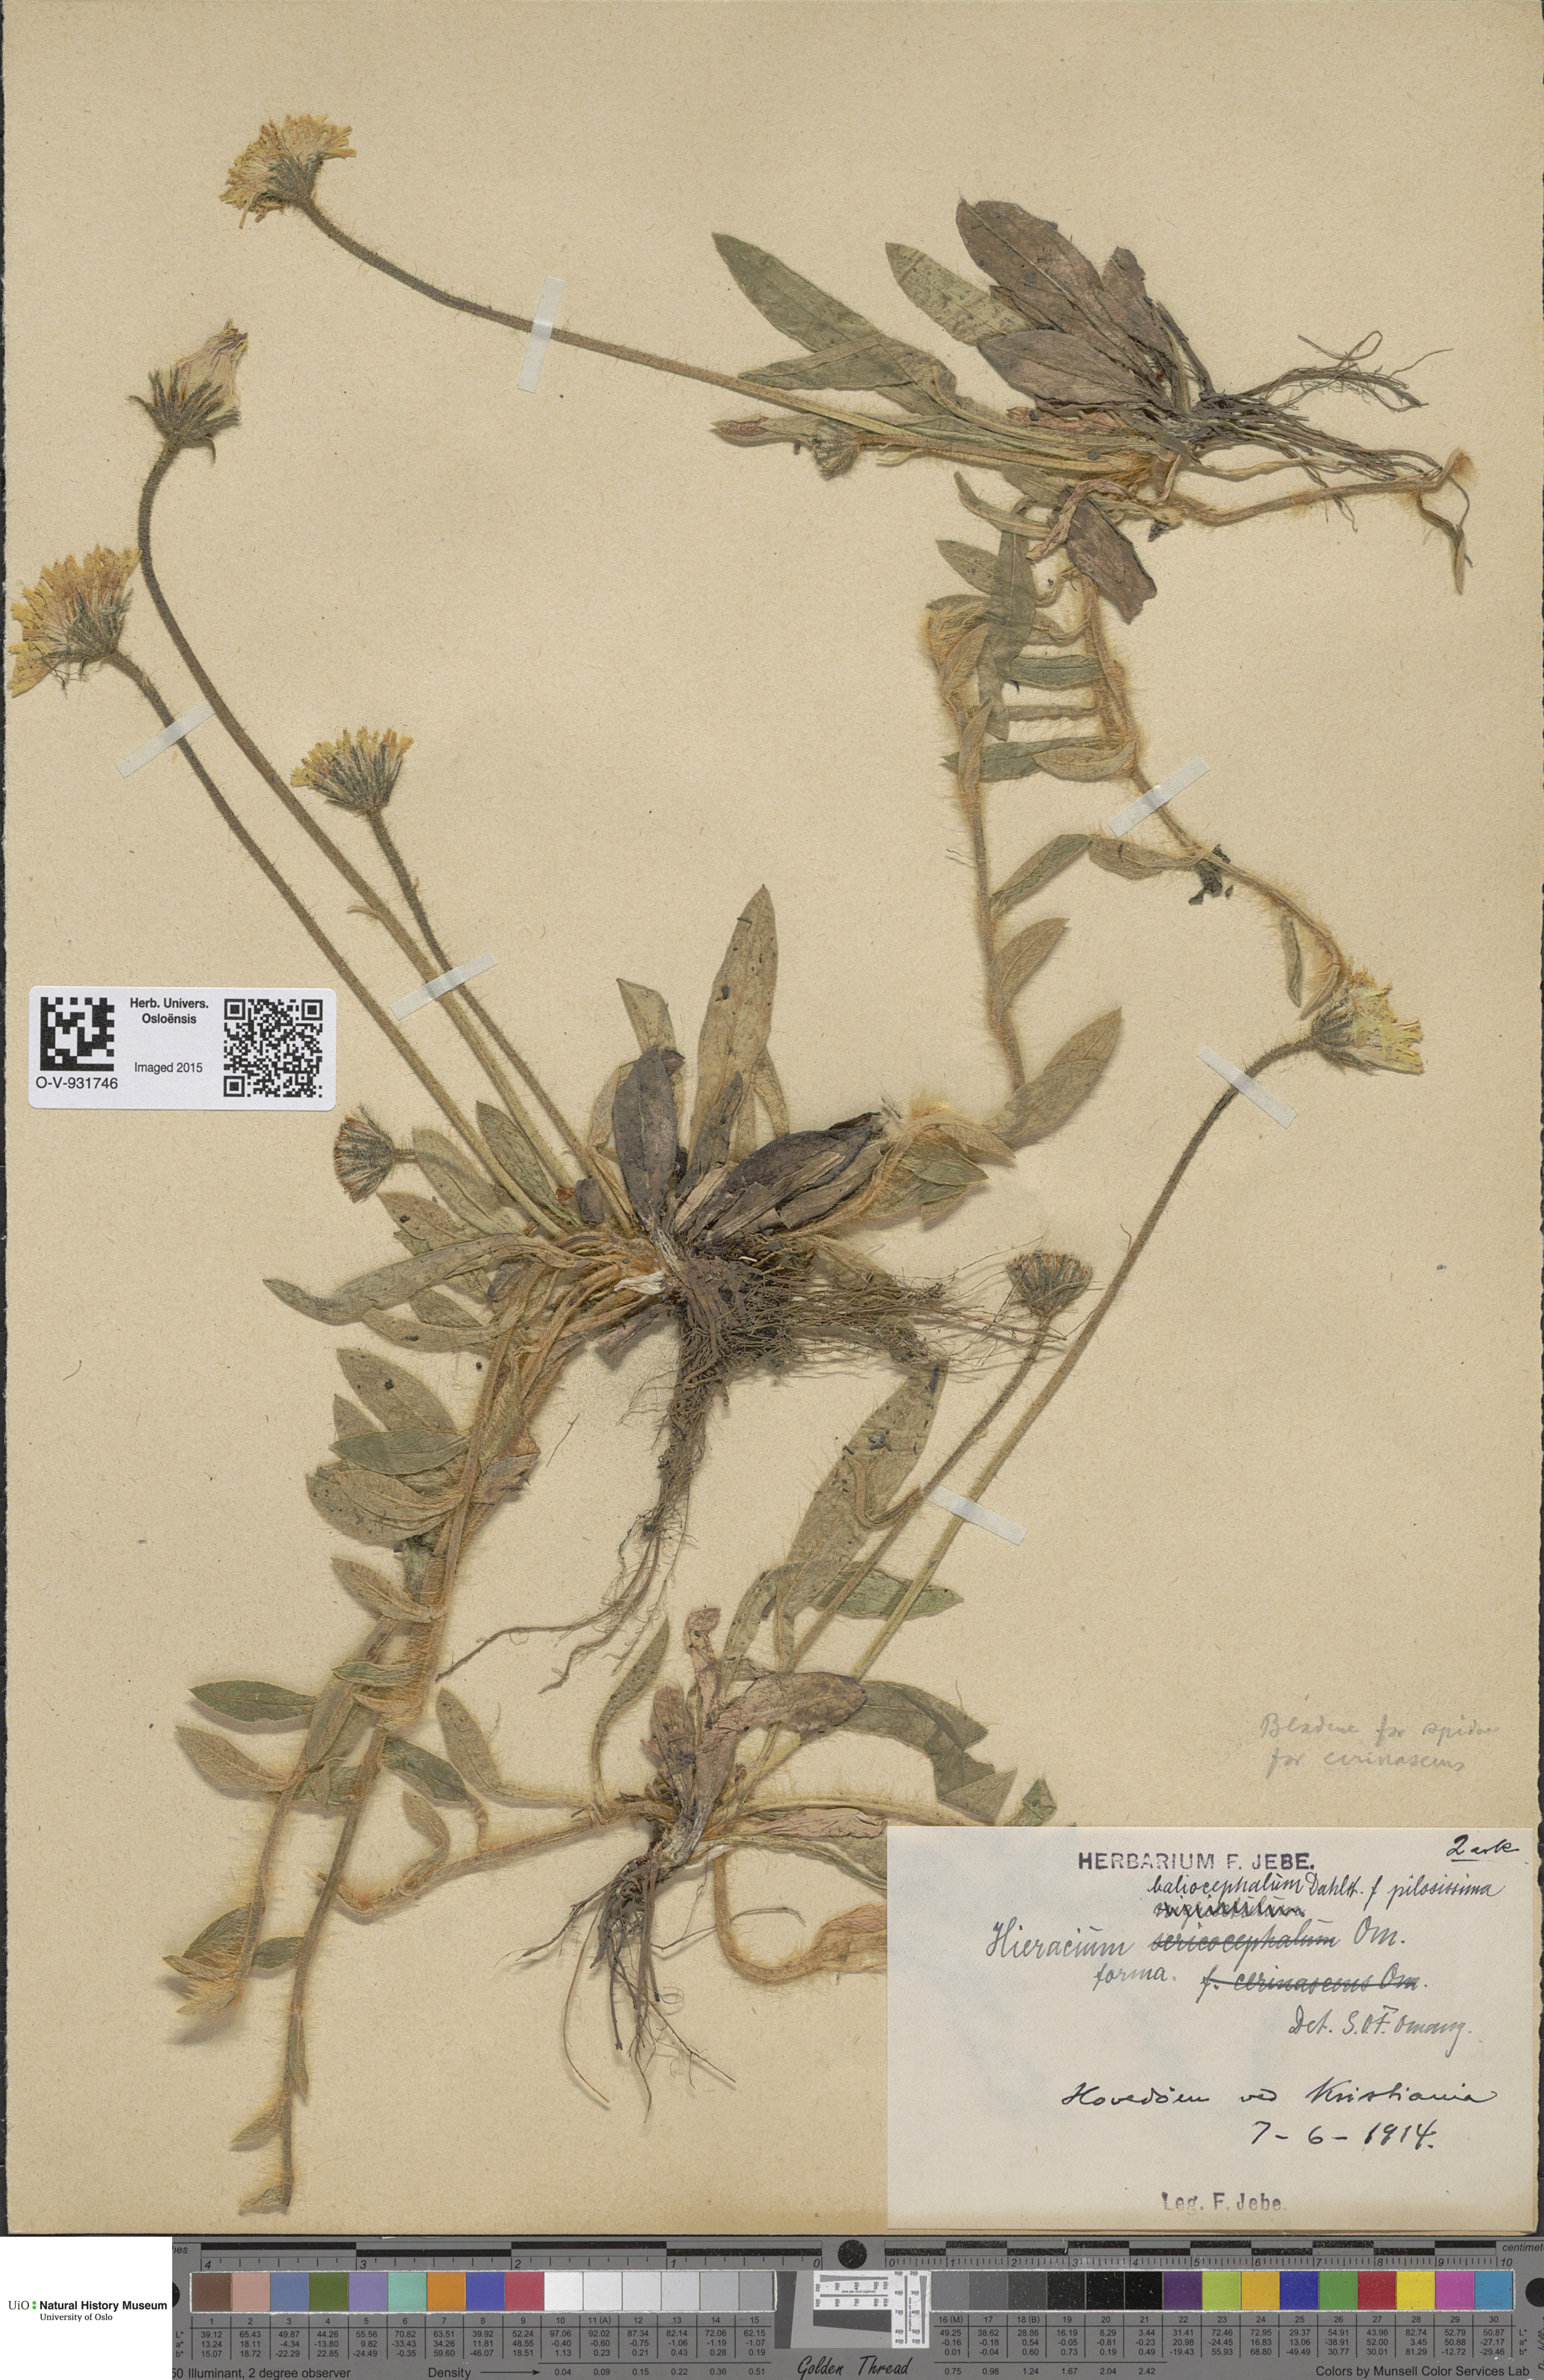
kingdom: Plantae
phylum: Tracheophyta
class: Magnoliopsida
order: Asterales
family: Asteraceae
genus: Hieracium
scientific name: Hieracium
